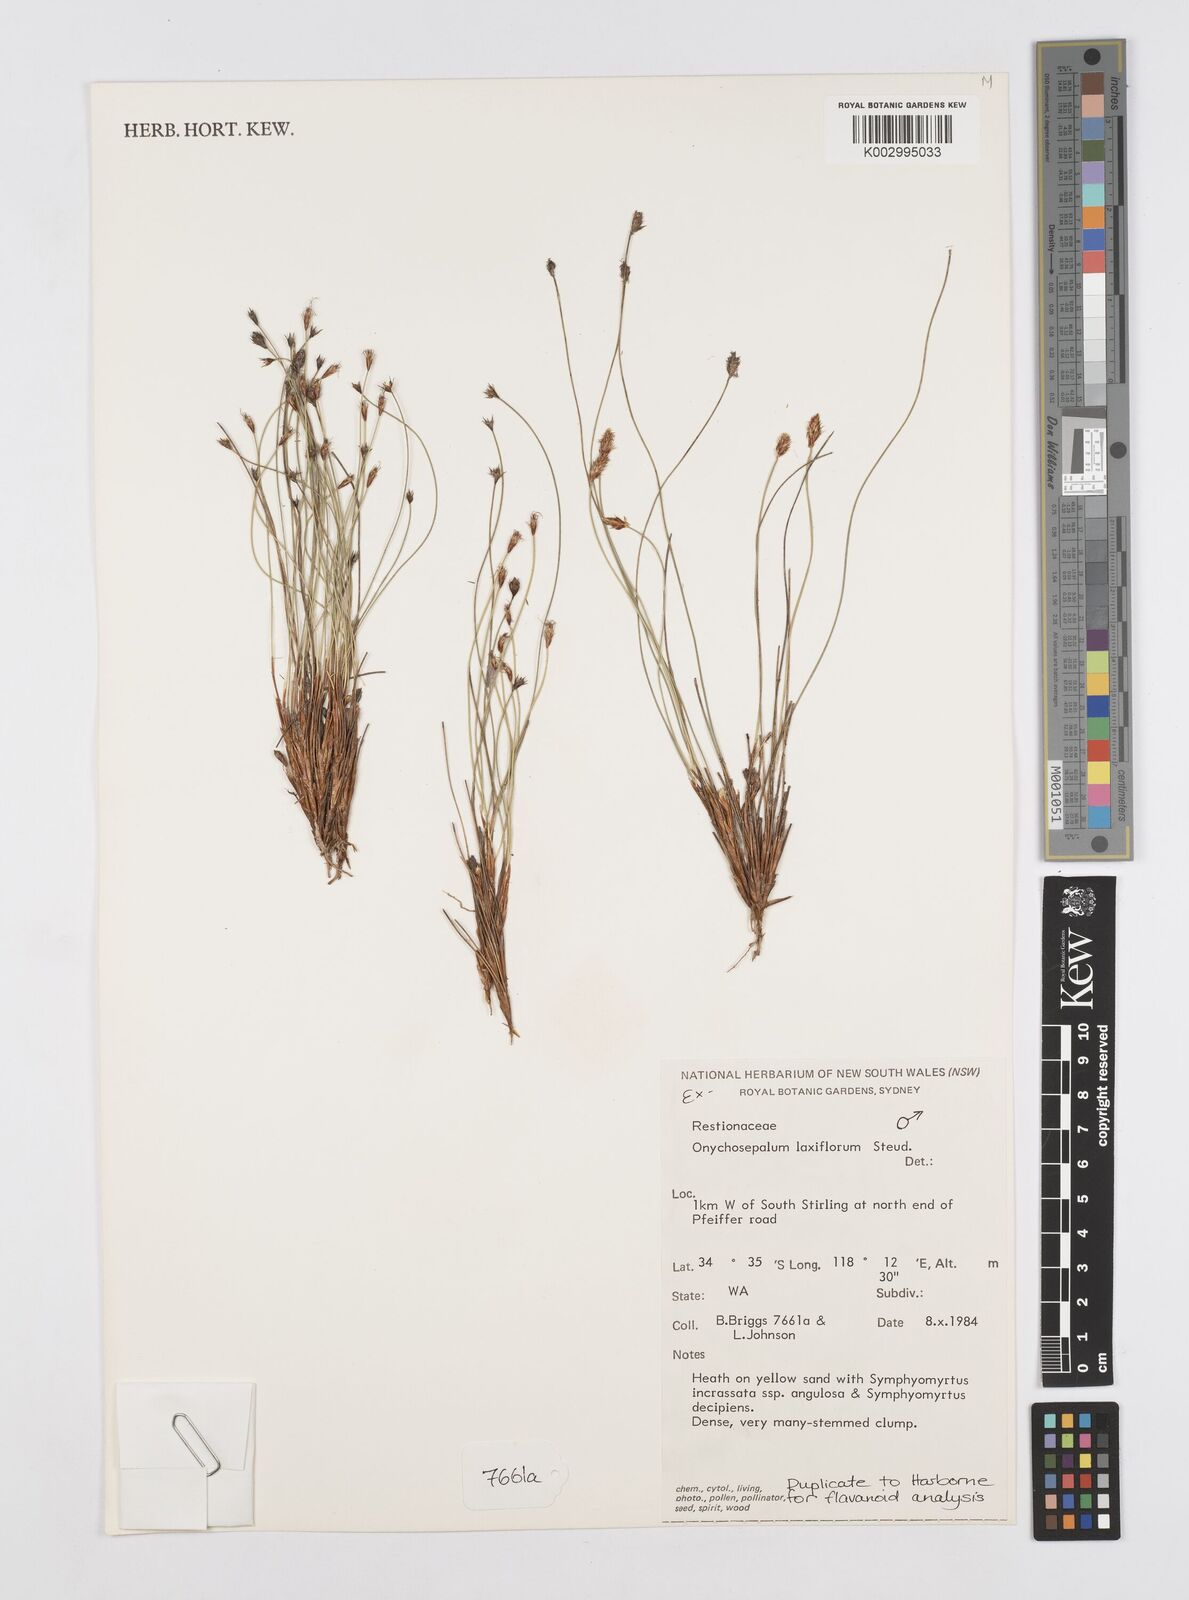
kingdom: Plantae
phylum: Tracheophyta
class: Liliopsida
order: Poales
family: Restionaceae
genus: Desmocladus
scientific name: Desmocladus laxiflorus
